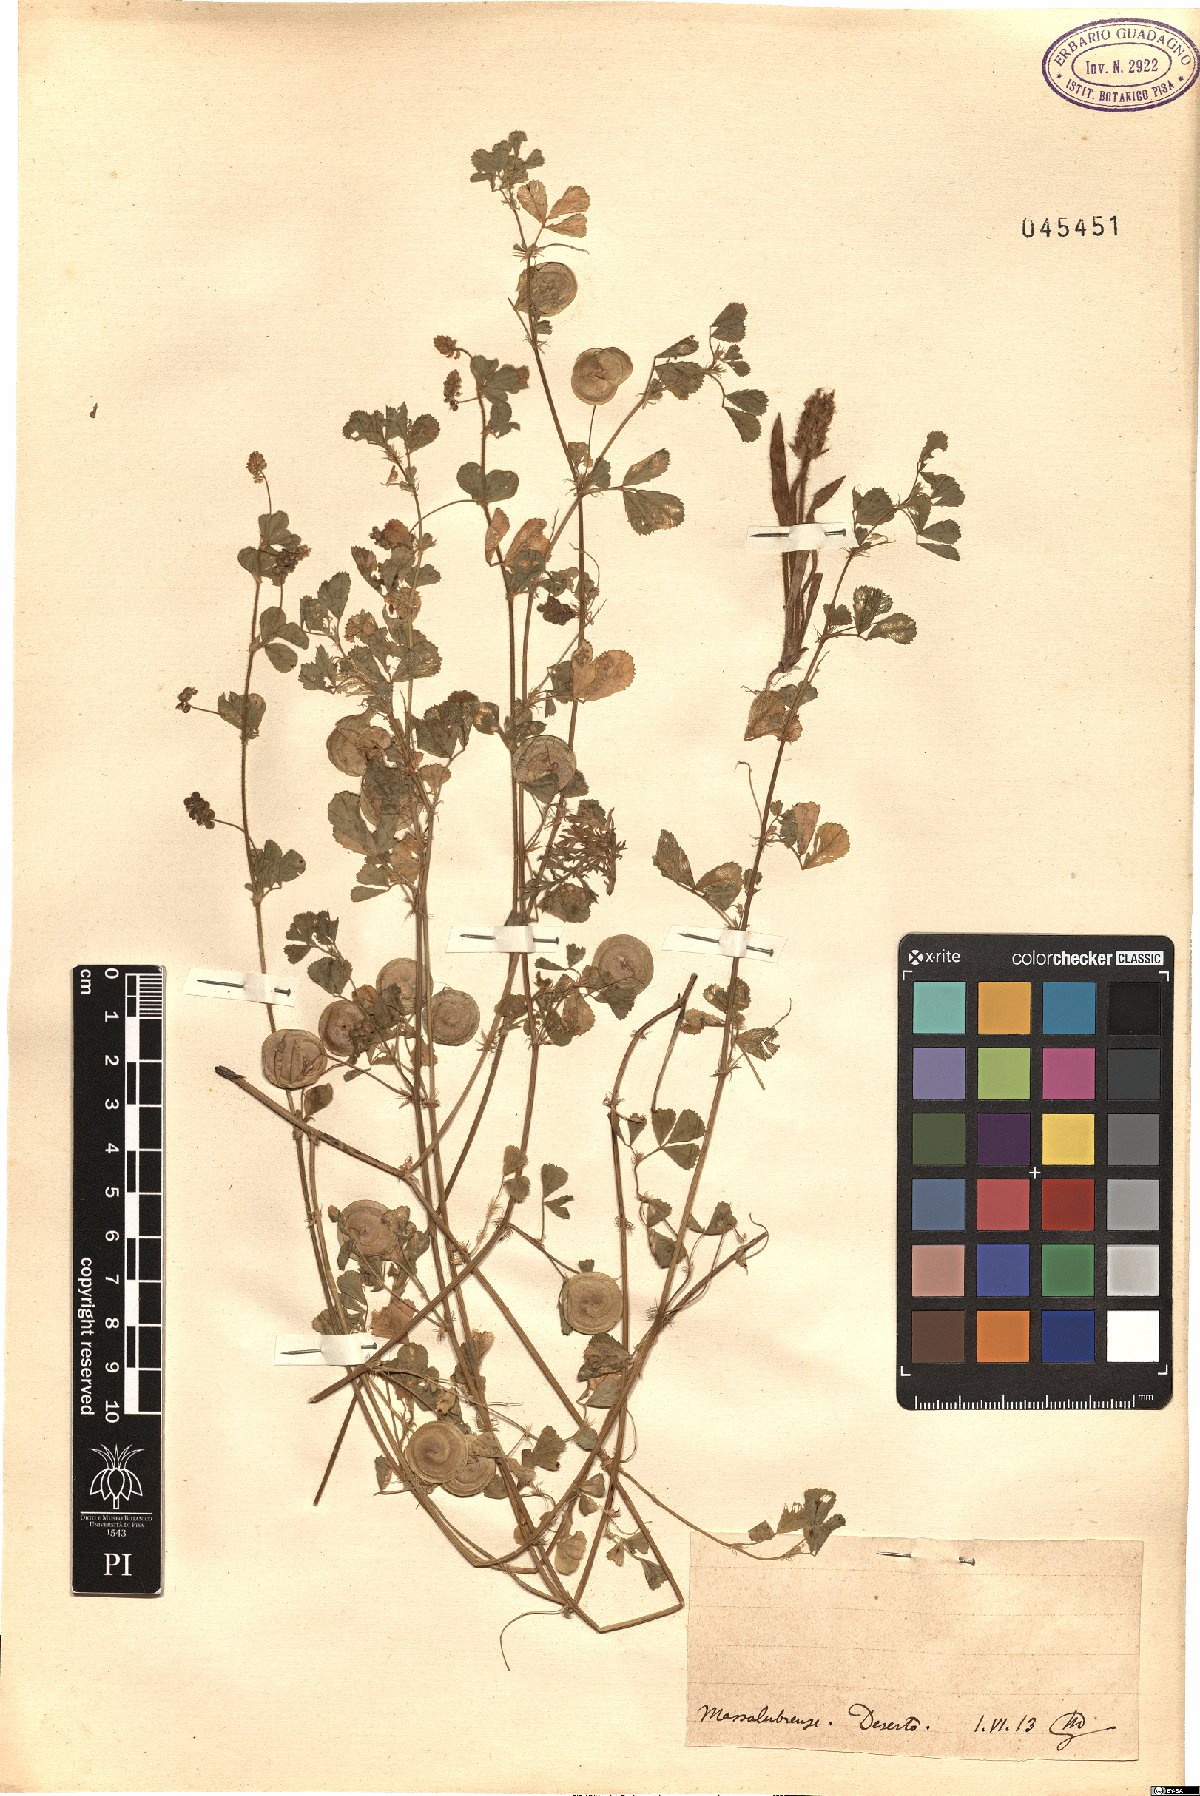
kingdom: Plantae
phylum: Tracheophyta
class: Magnoliopsida
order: Fabales
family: Fabaceae
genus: Medicago
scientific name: Medicago
